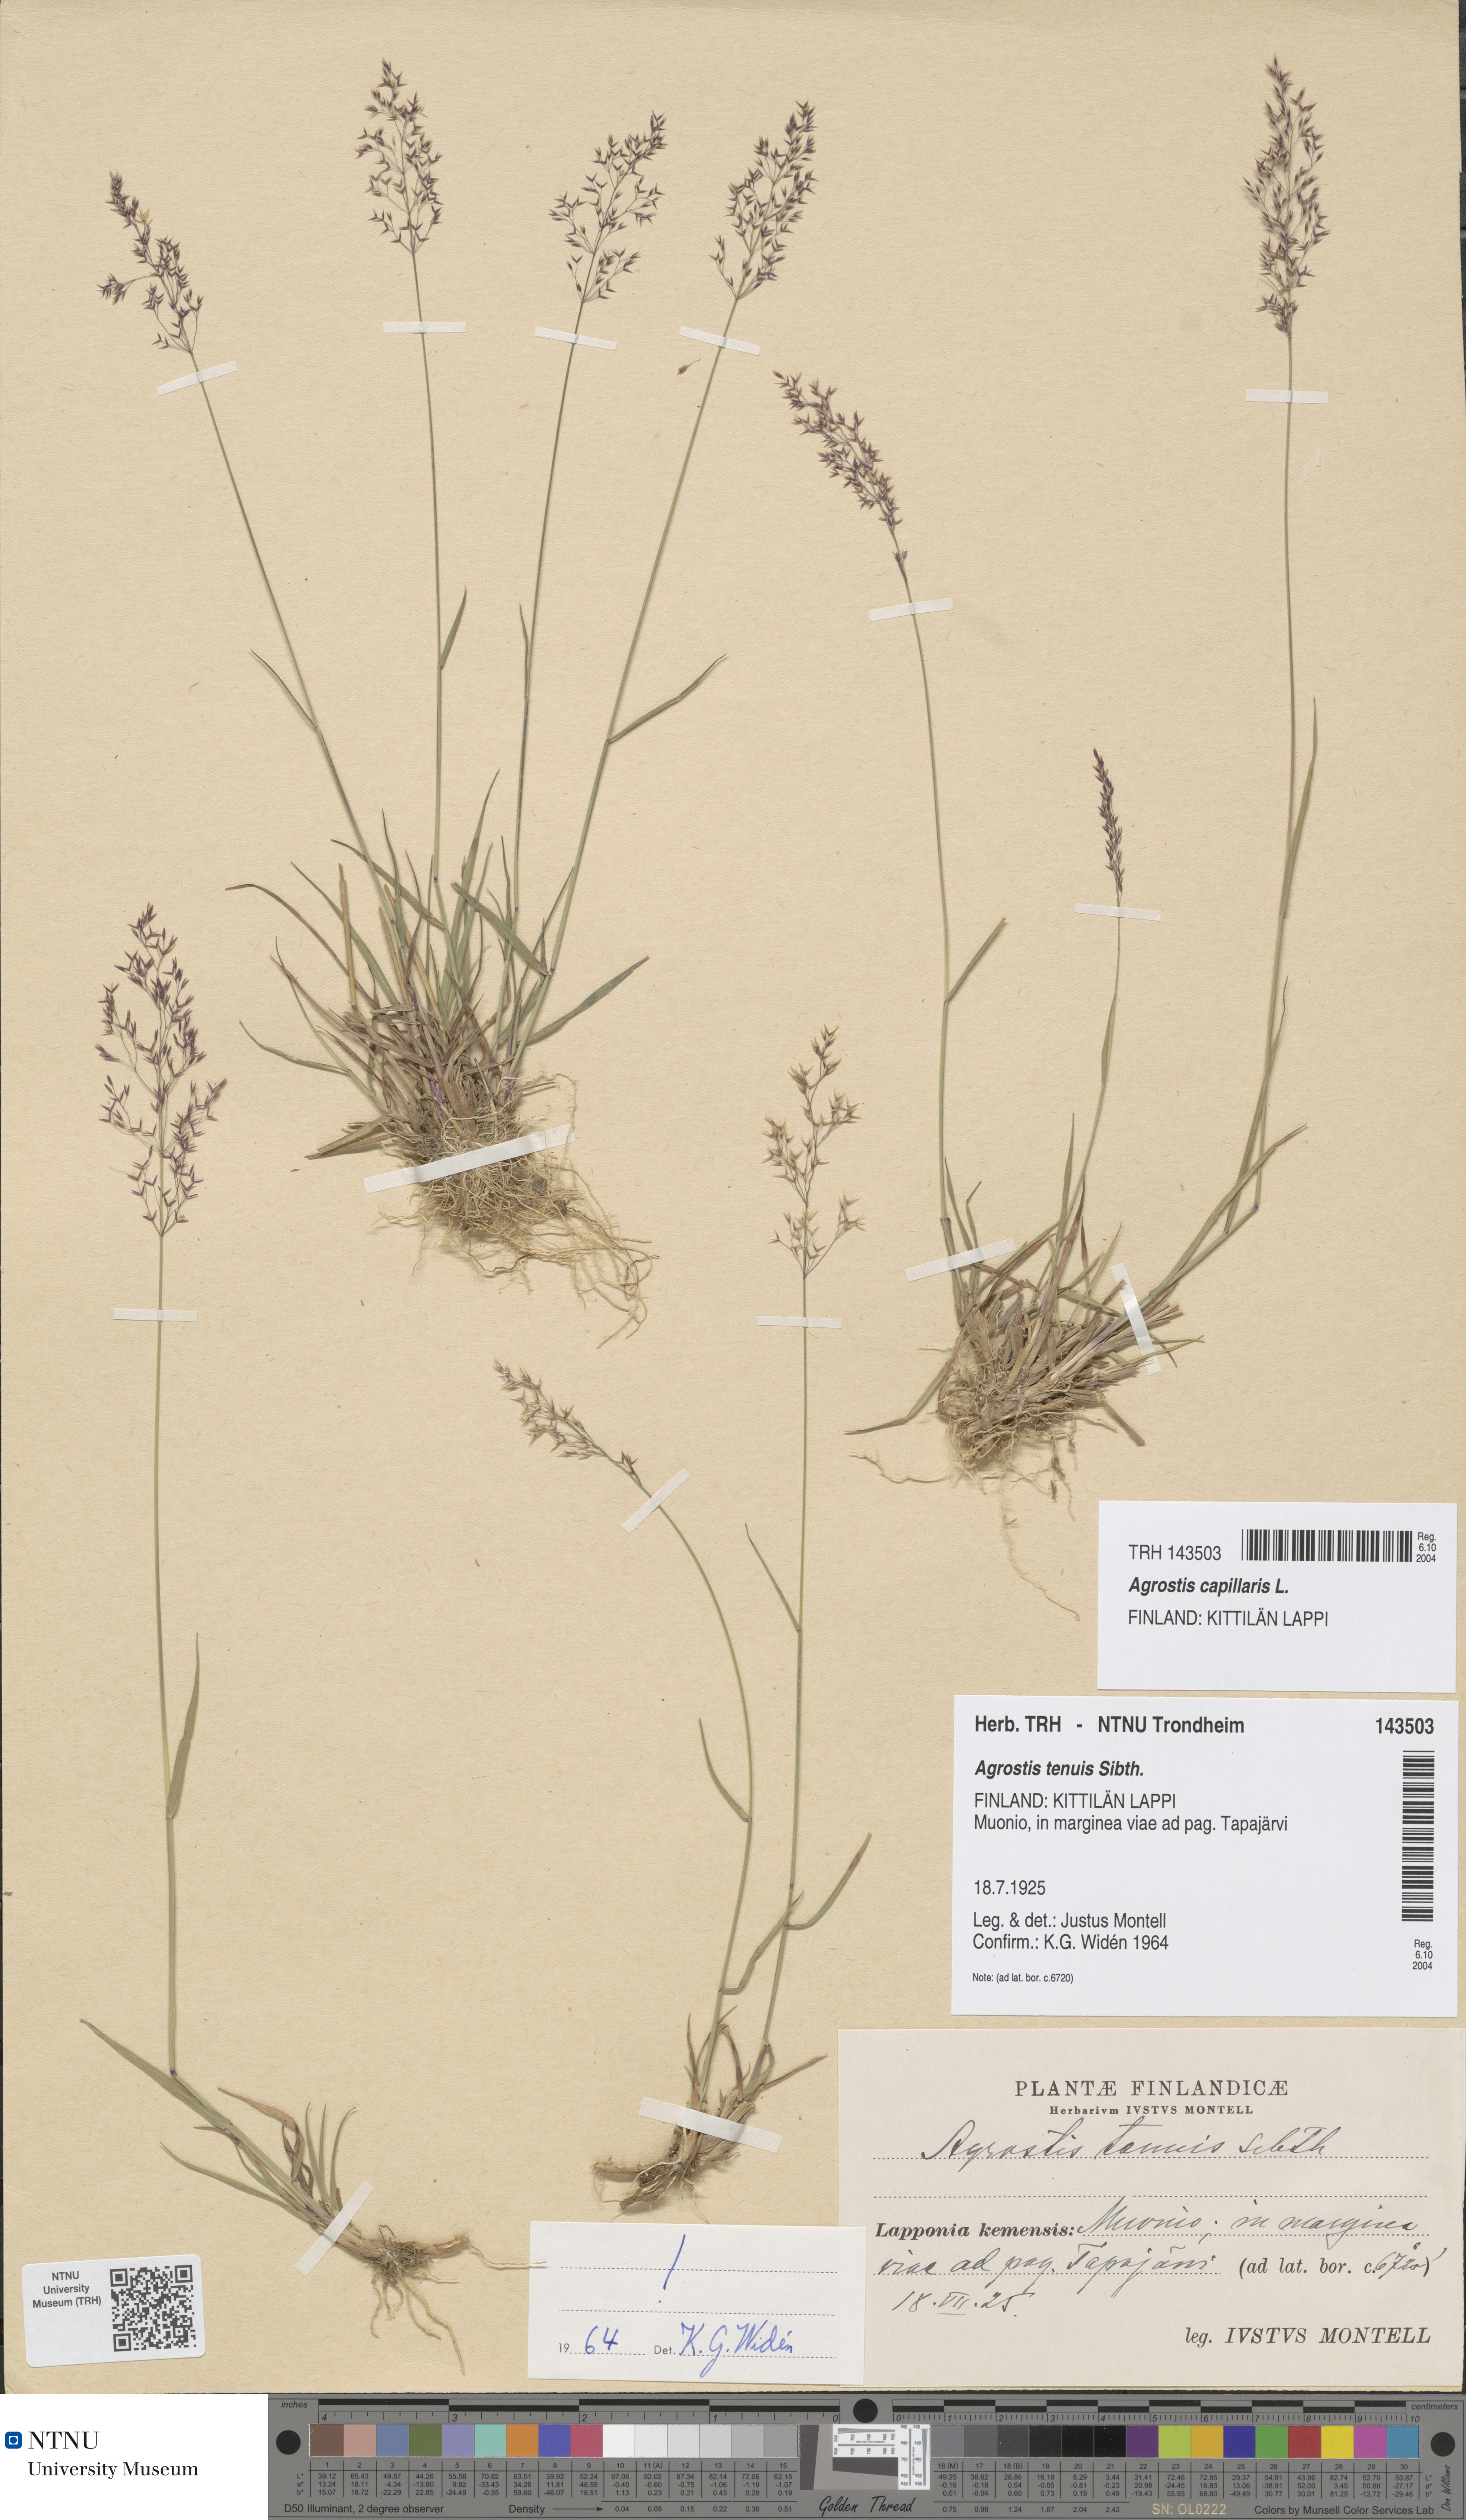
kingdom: Plantae
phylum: Tracheophyta
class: Liliopsida
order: Poales
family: Poaceae
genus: Agrostis
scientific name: Agrostis capillaris
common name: Colonial bentgrass
